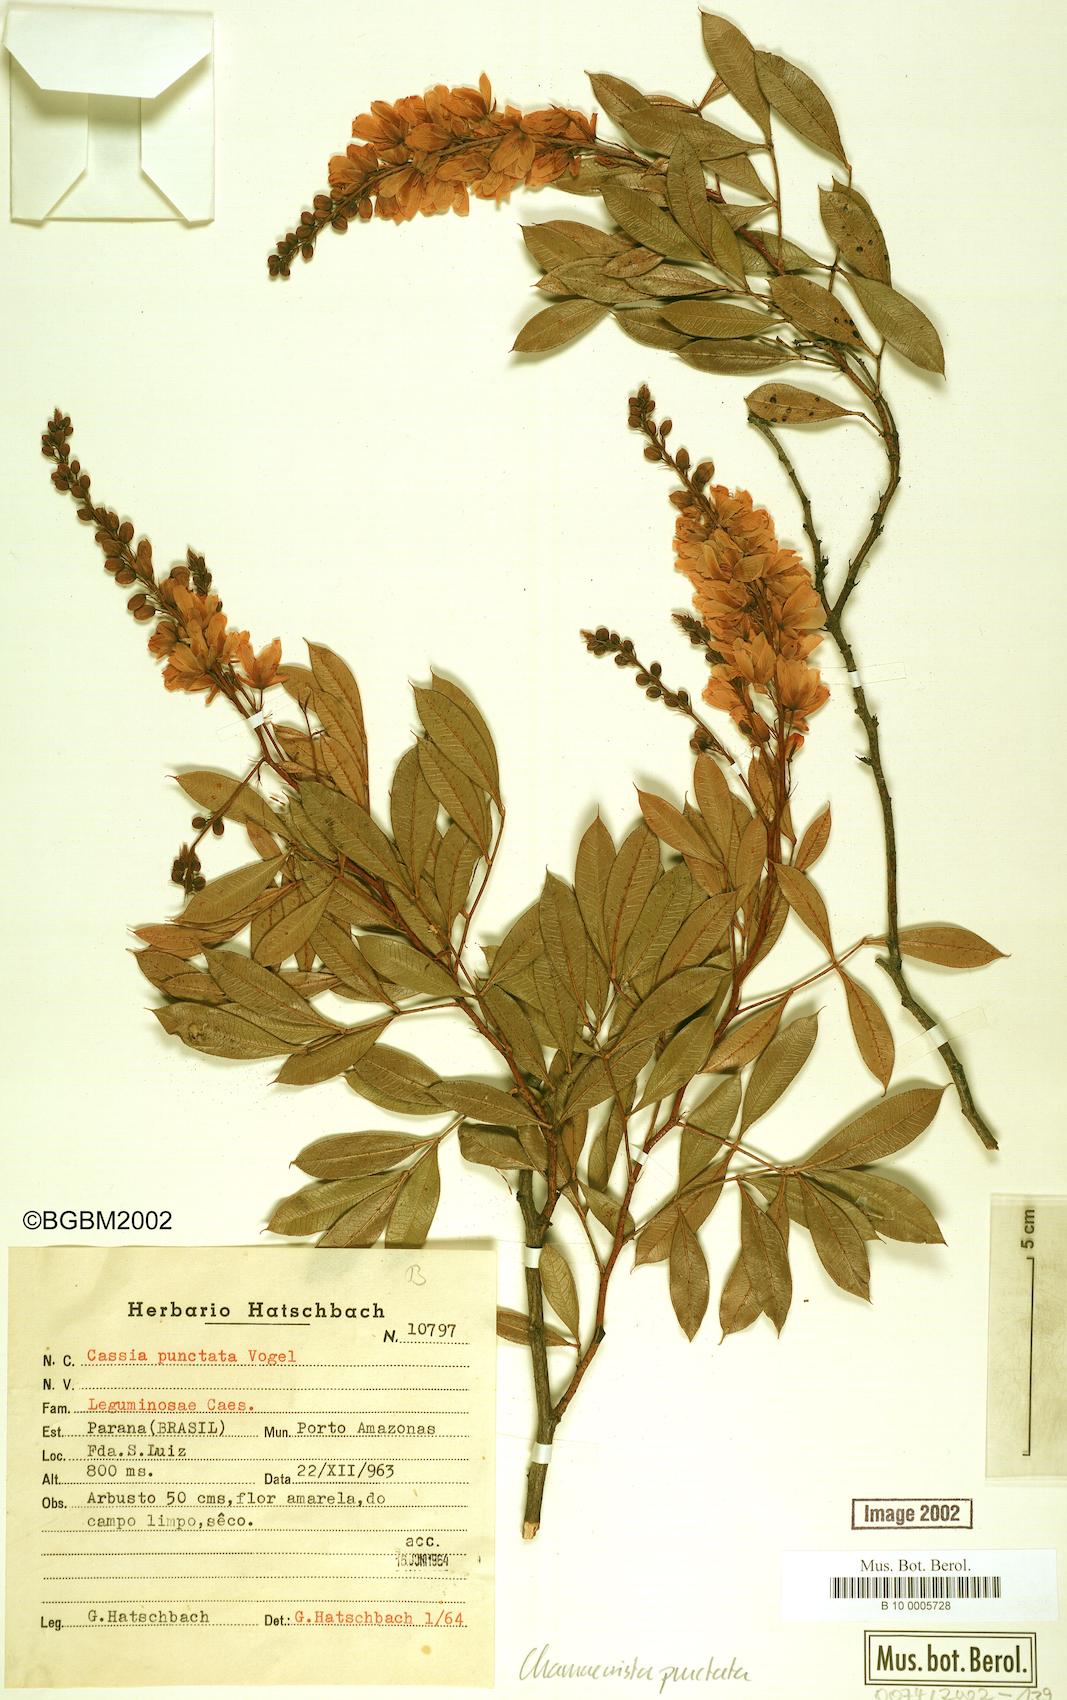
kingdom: Plantae
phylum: Tracheophyta
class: Magnoliopsida
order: Fabales
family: Fabaceae
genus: Chamaecrista
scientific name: Chamaecrista punctata
